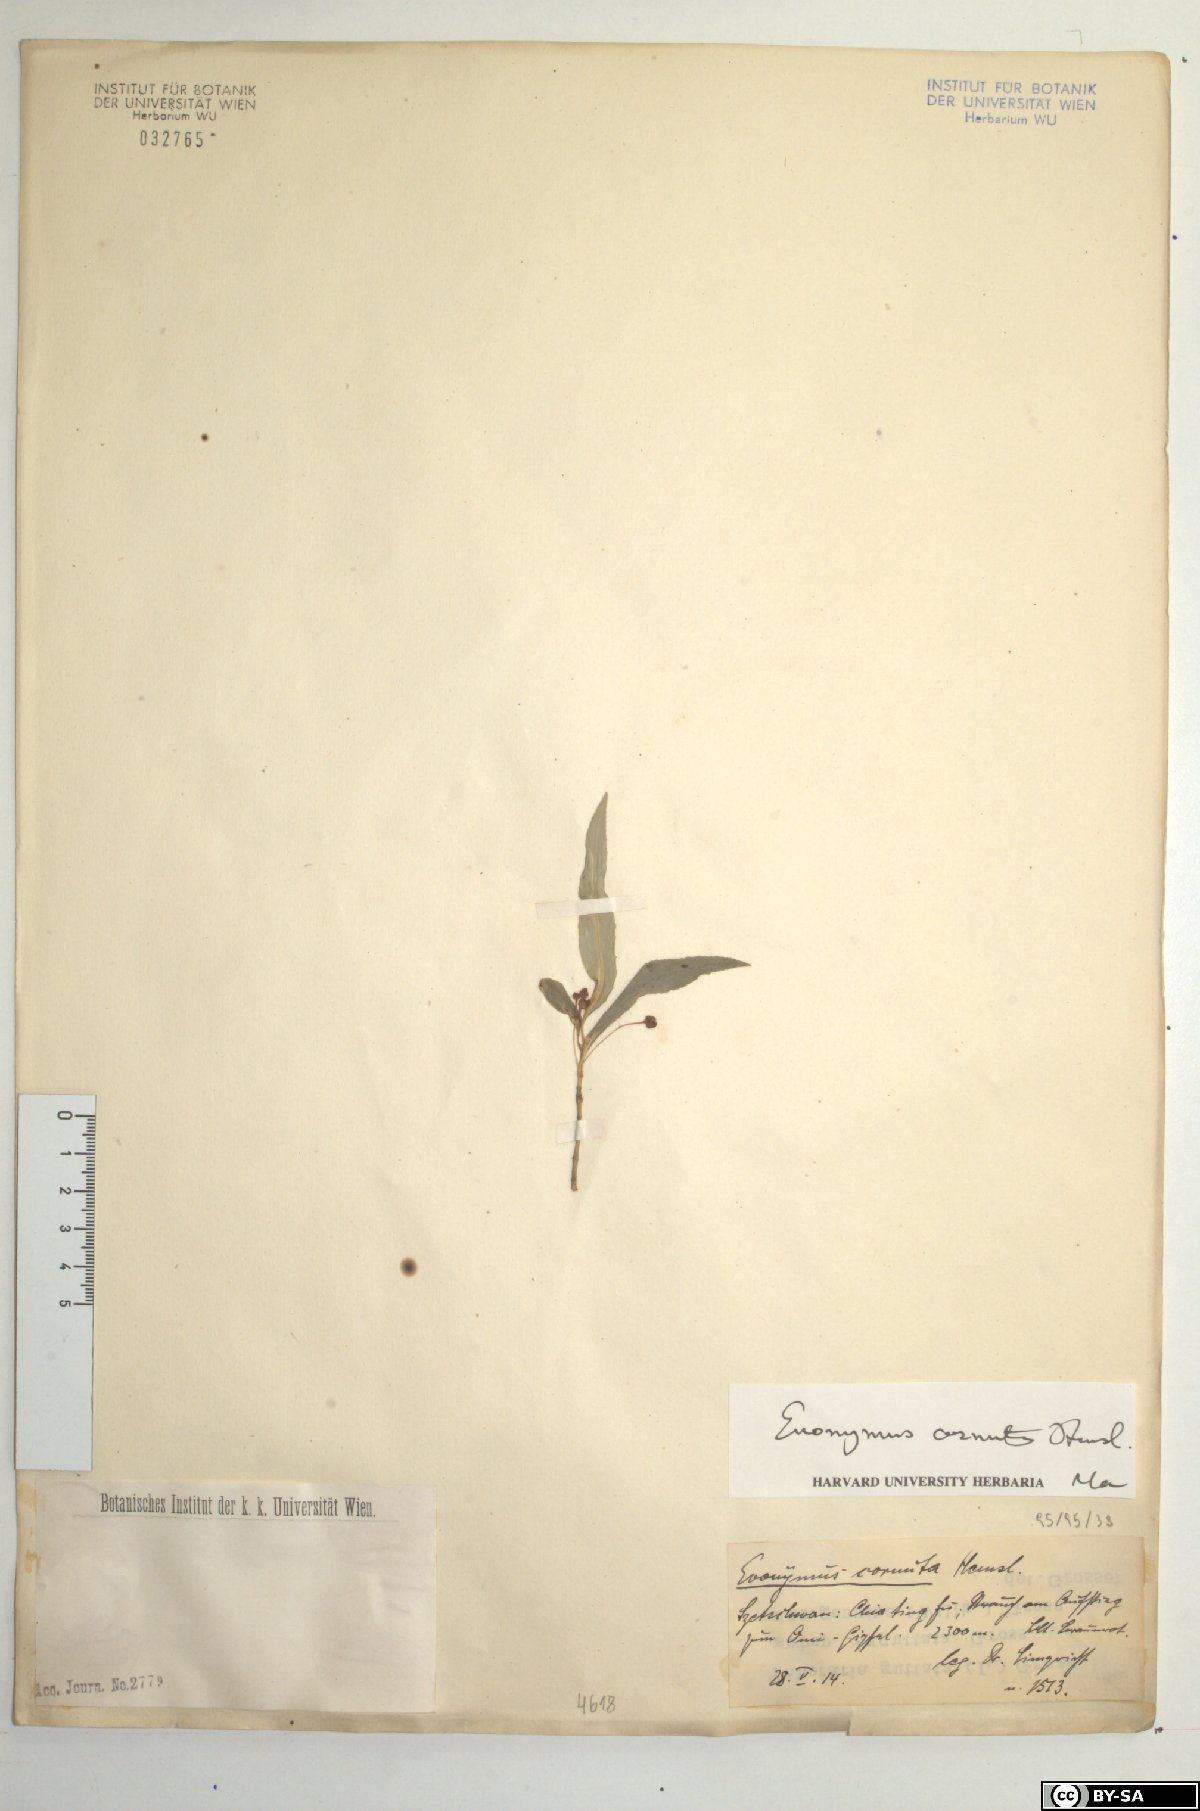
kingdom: Plantae
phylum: Tracheophyta
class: Magnoliopsida
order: Celastrales
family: Celastraceae
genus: Euonymus
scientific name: Euonymus cornutus
